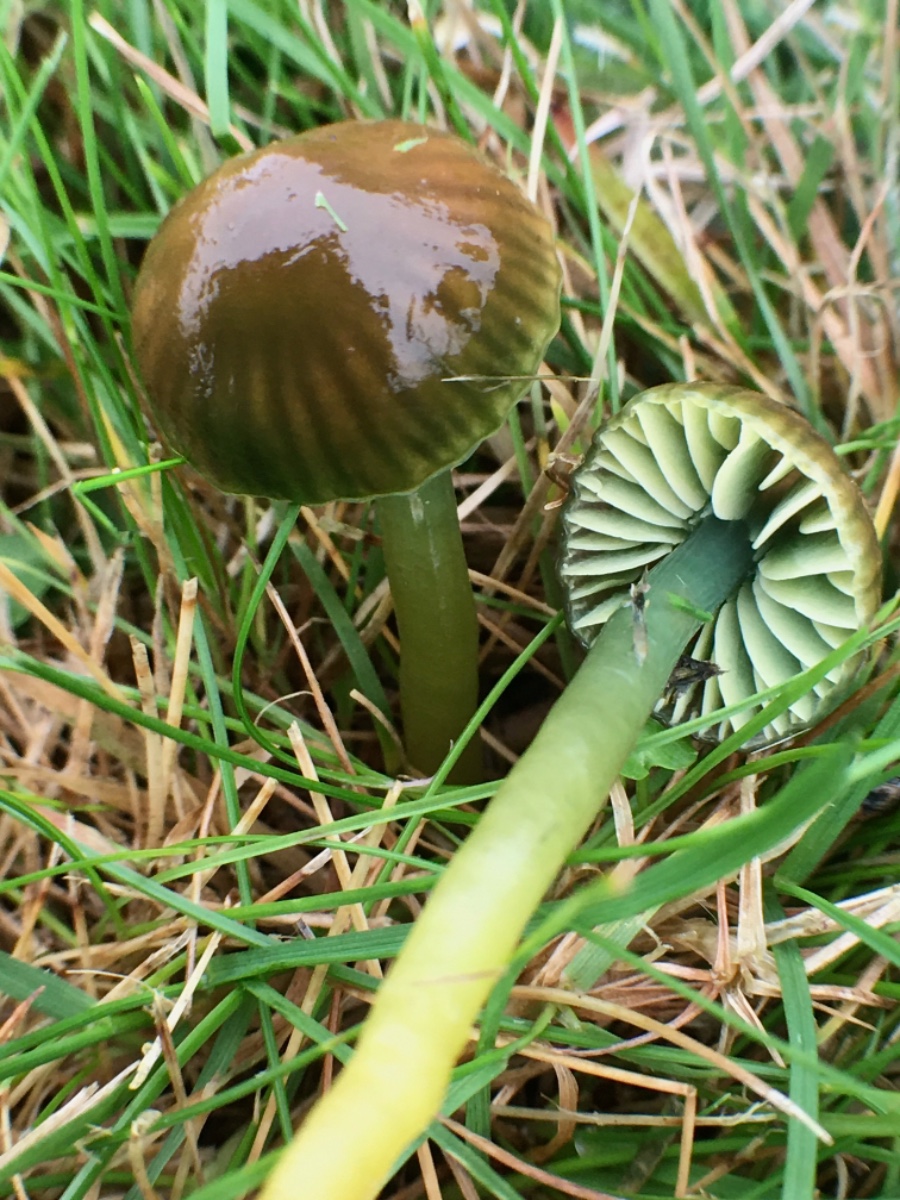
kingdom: Fungi
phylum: Basidiomycota
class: Agaricomycetes
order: Agaricales
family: Hygrophoraceae
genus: Gliophorus
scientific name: Gliophorus psittacinus
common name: papegøje-vokshat
